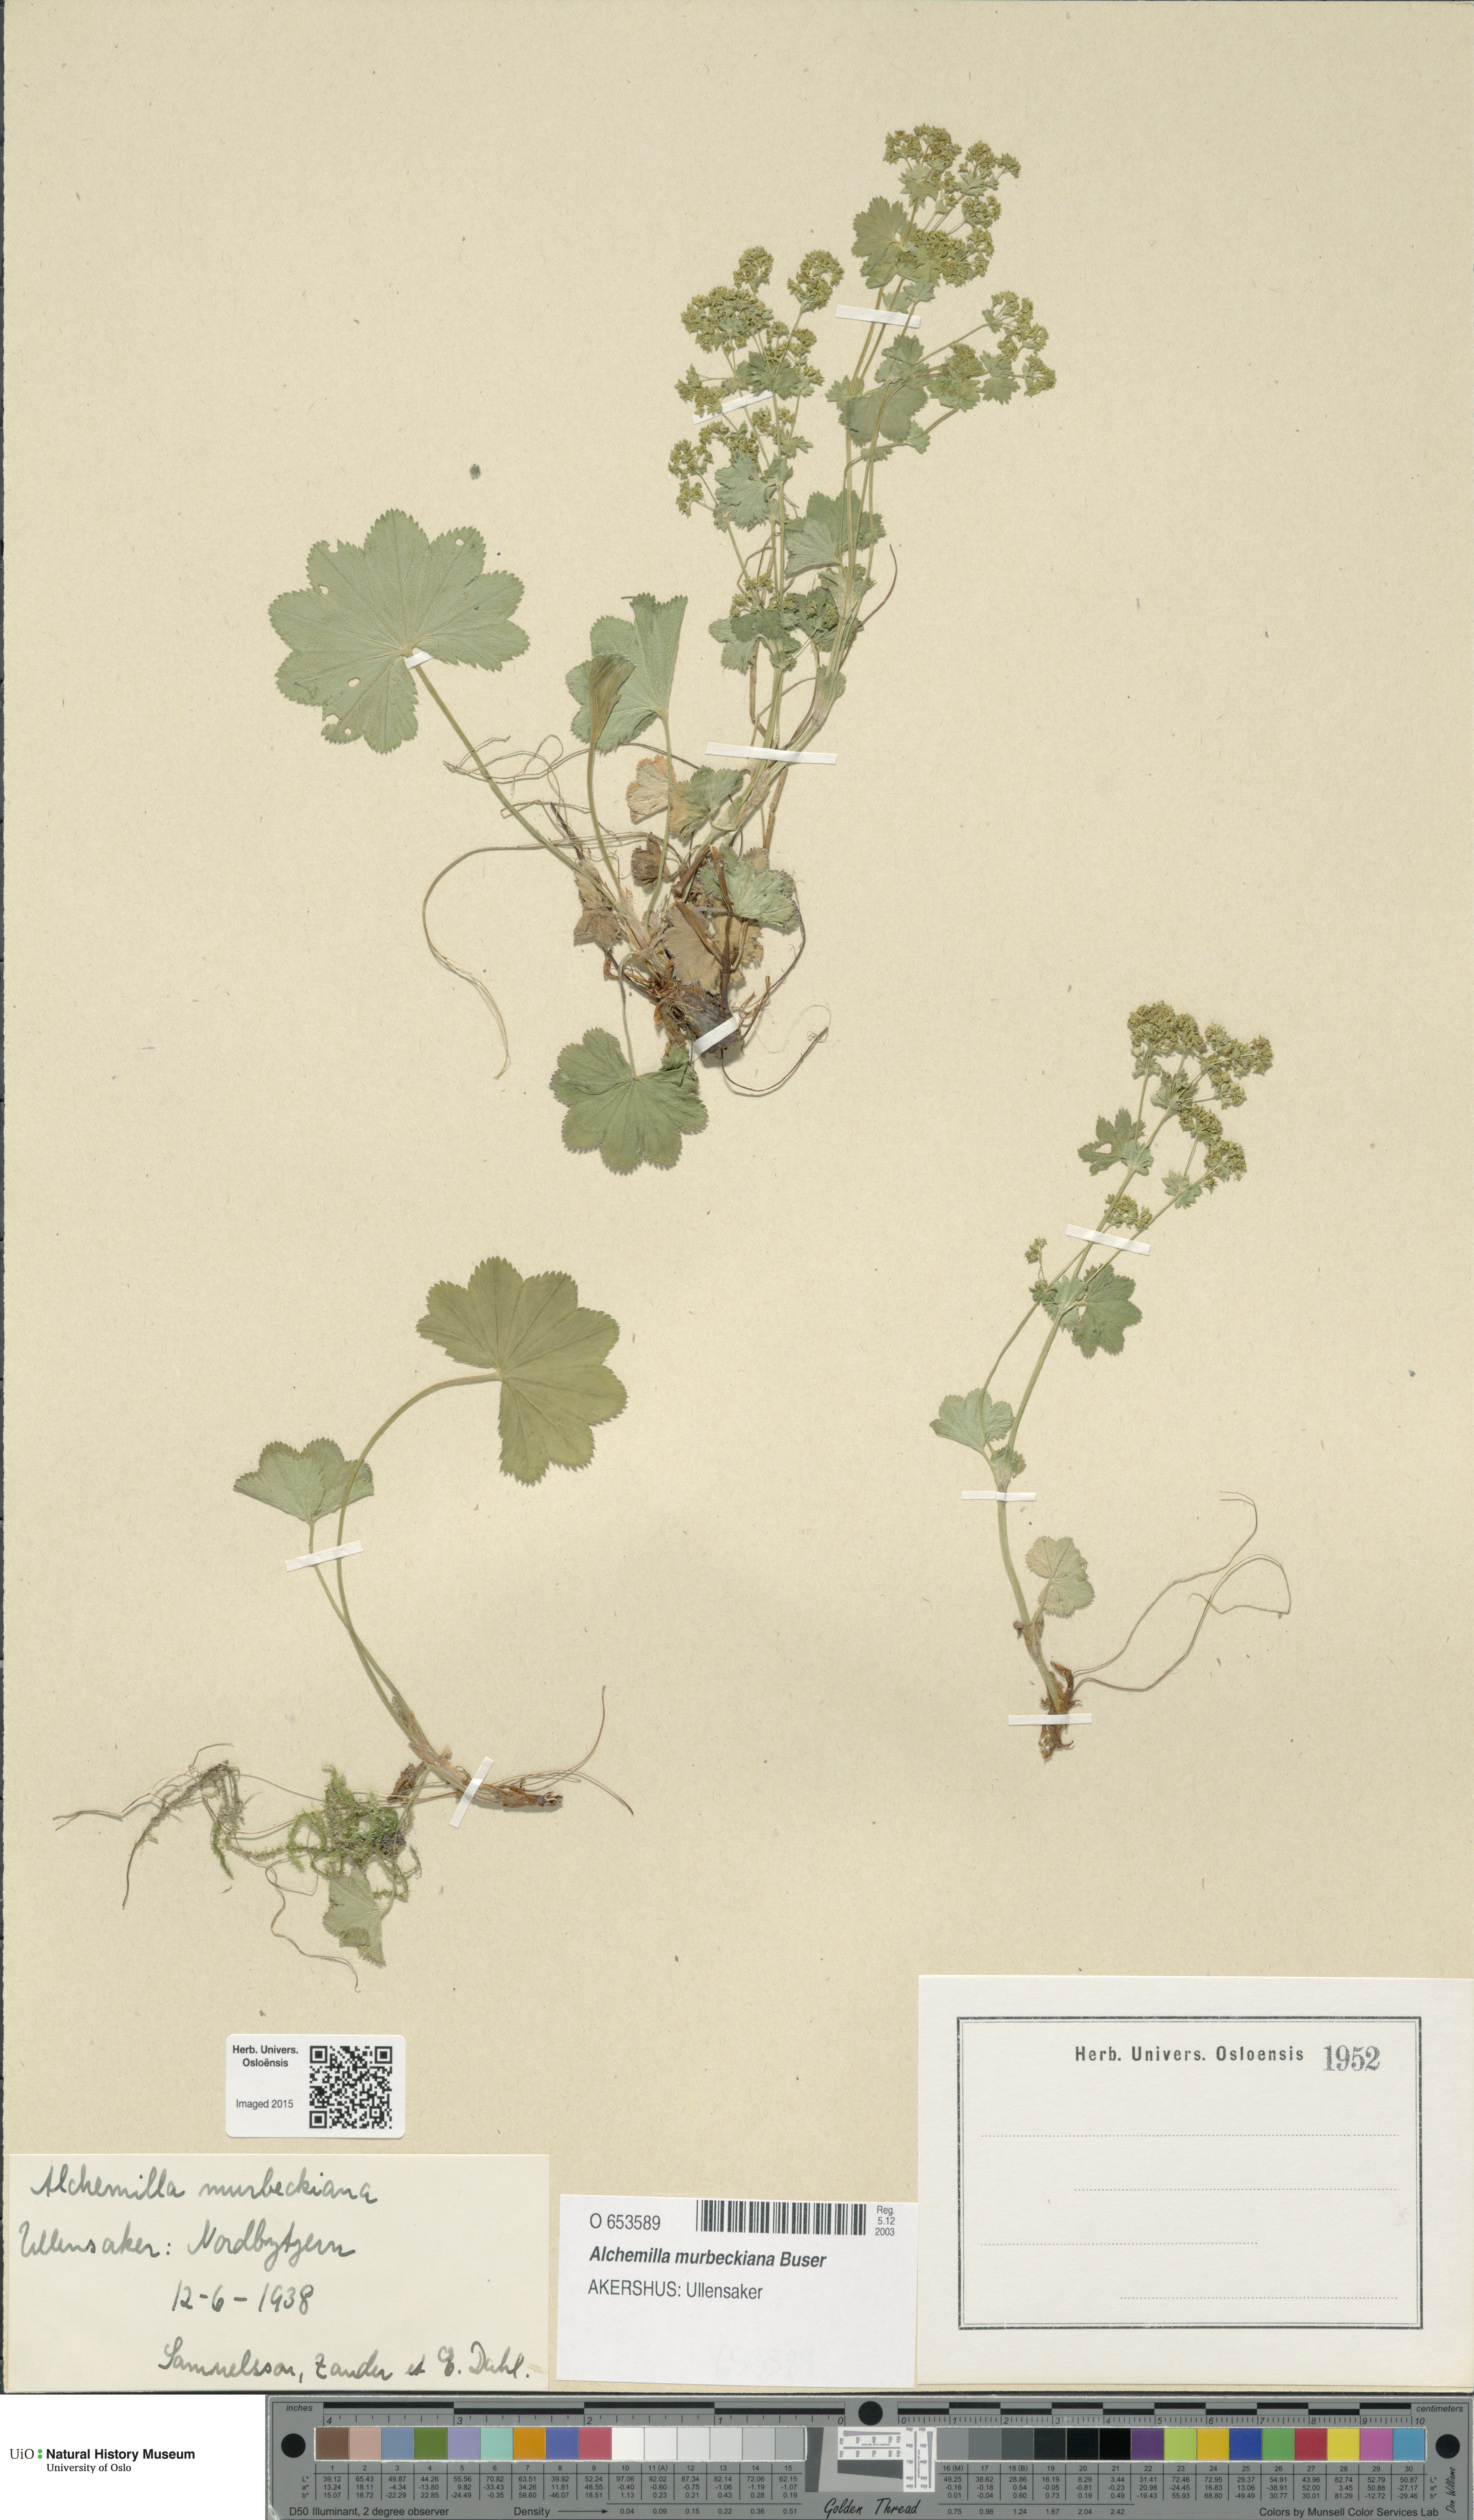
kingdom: Plantae
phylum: Tracheophyta
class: Magnoliopsida
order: Rosales
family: Rosaceae
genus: Alchemilla
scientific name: Alchemilla murbeckiana
